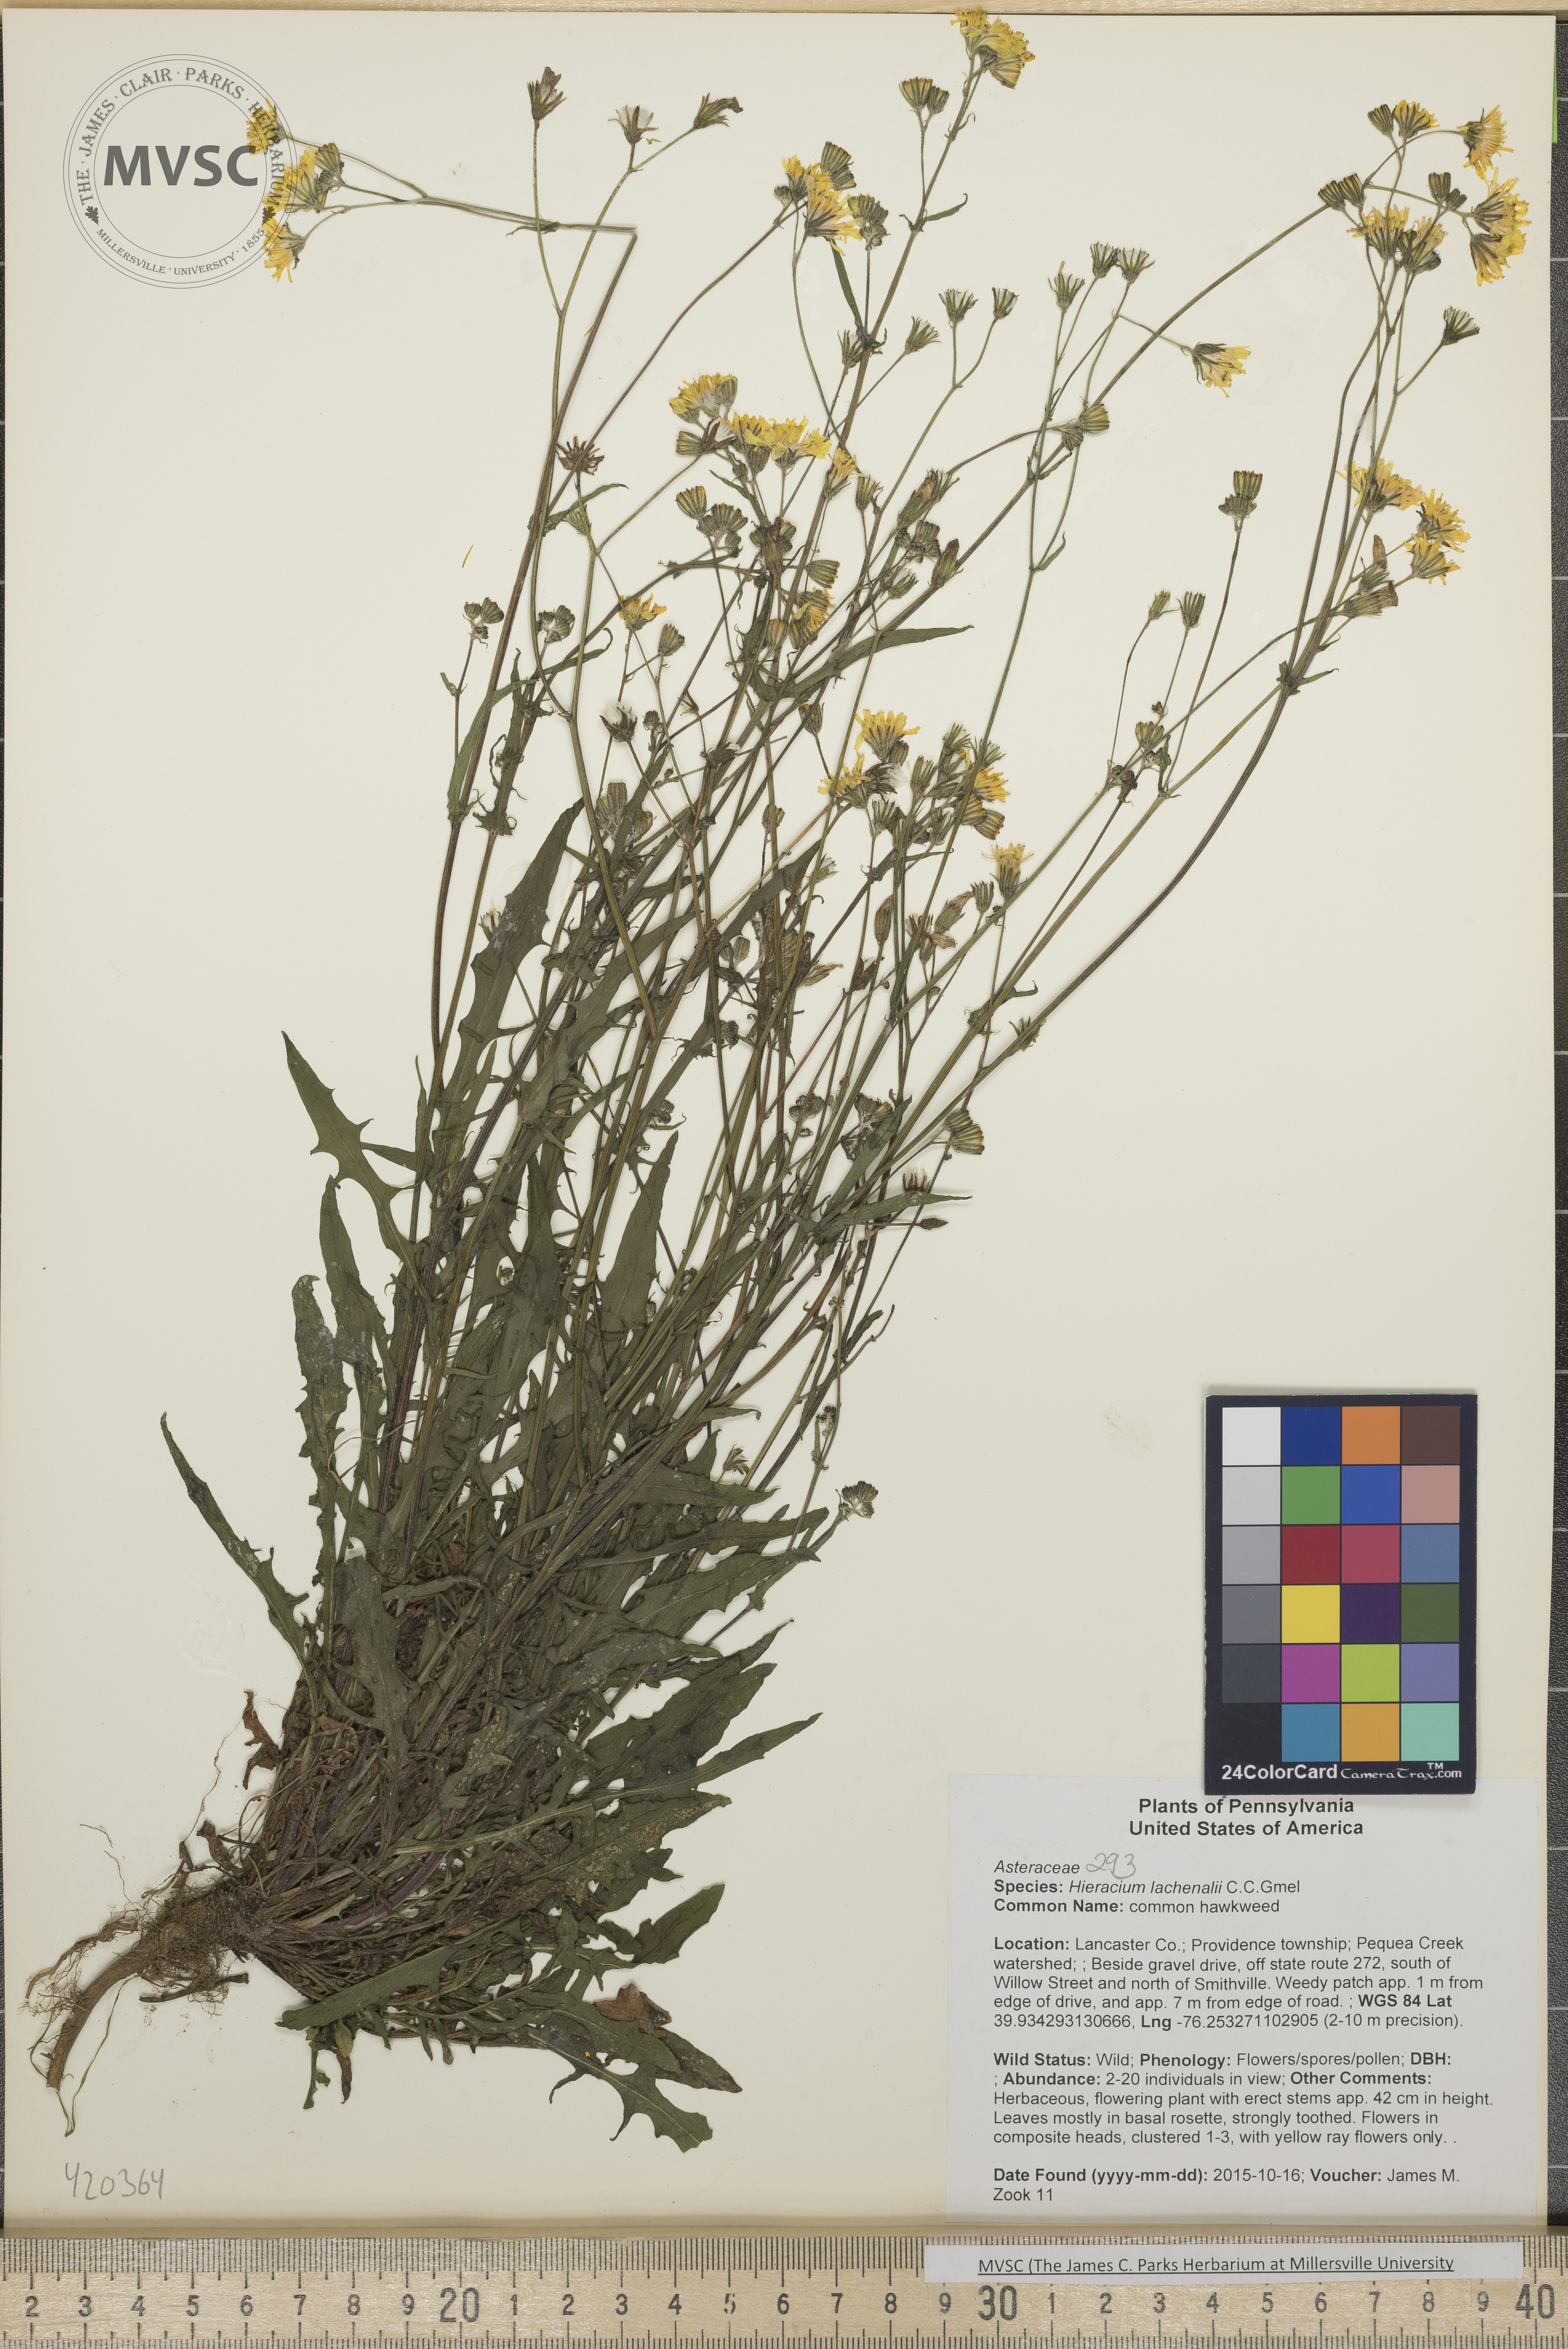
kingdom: Plantae
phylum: Tracheophyta
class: Magnoliopsida
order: Asterales
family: Asteraceae
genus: Hieracium
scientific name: Hieracium lachenalii
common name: common hawkweed
